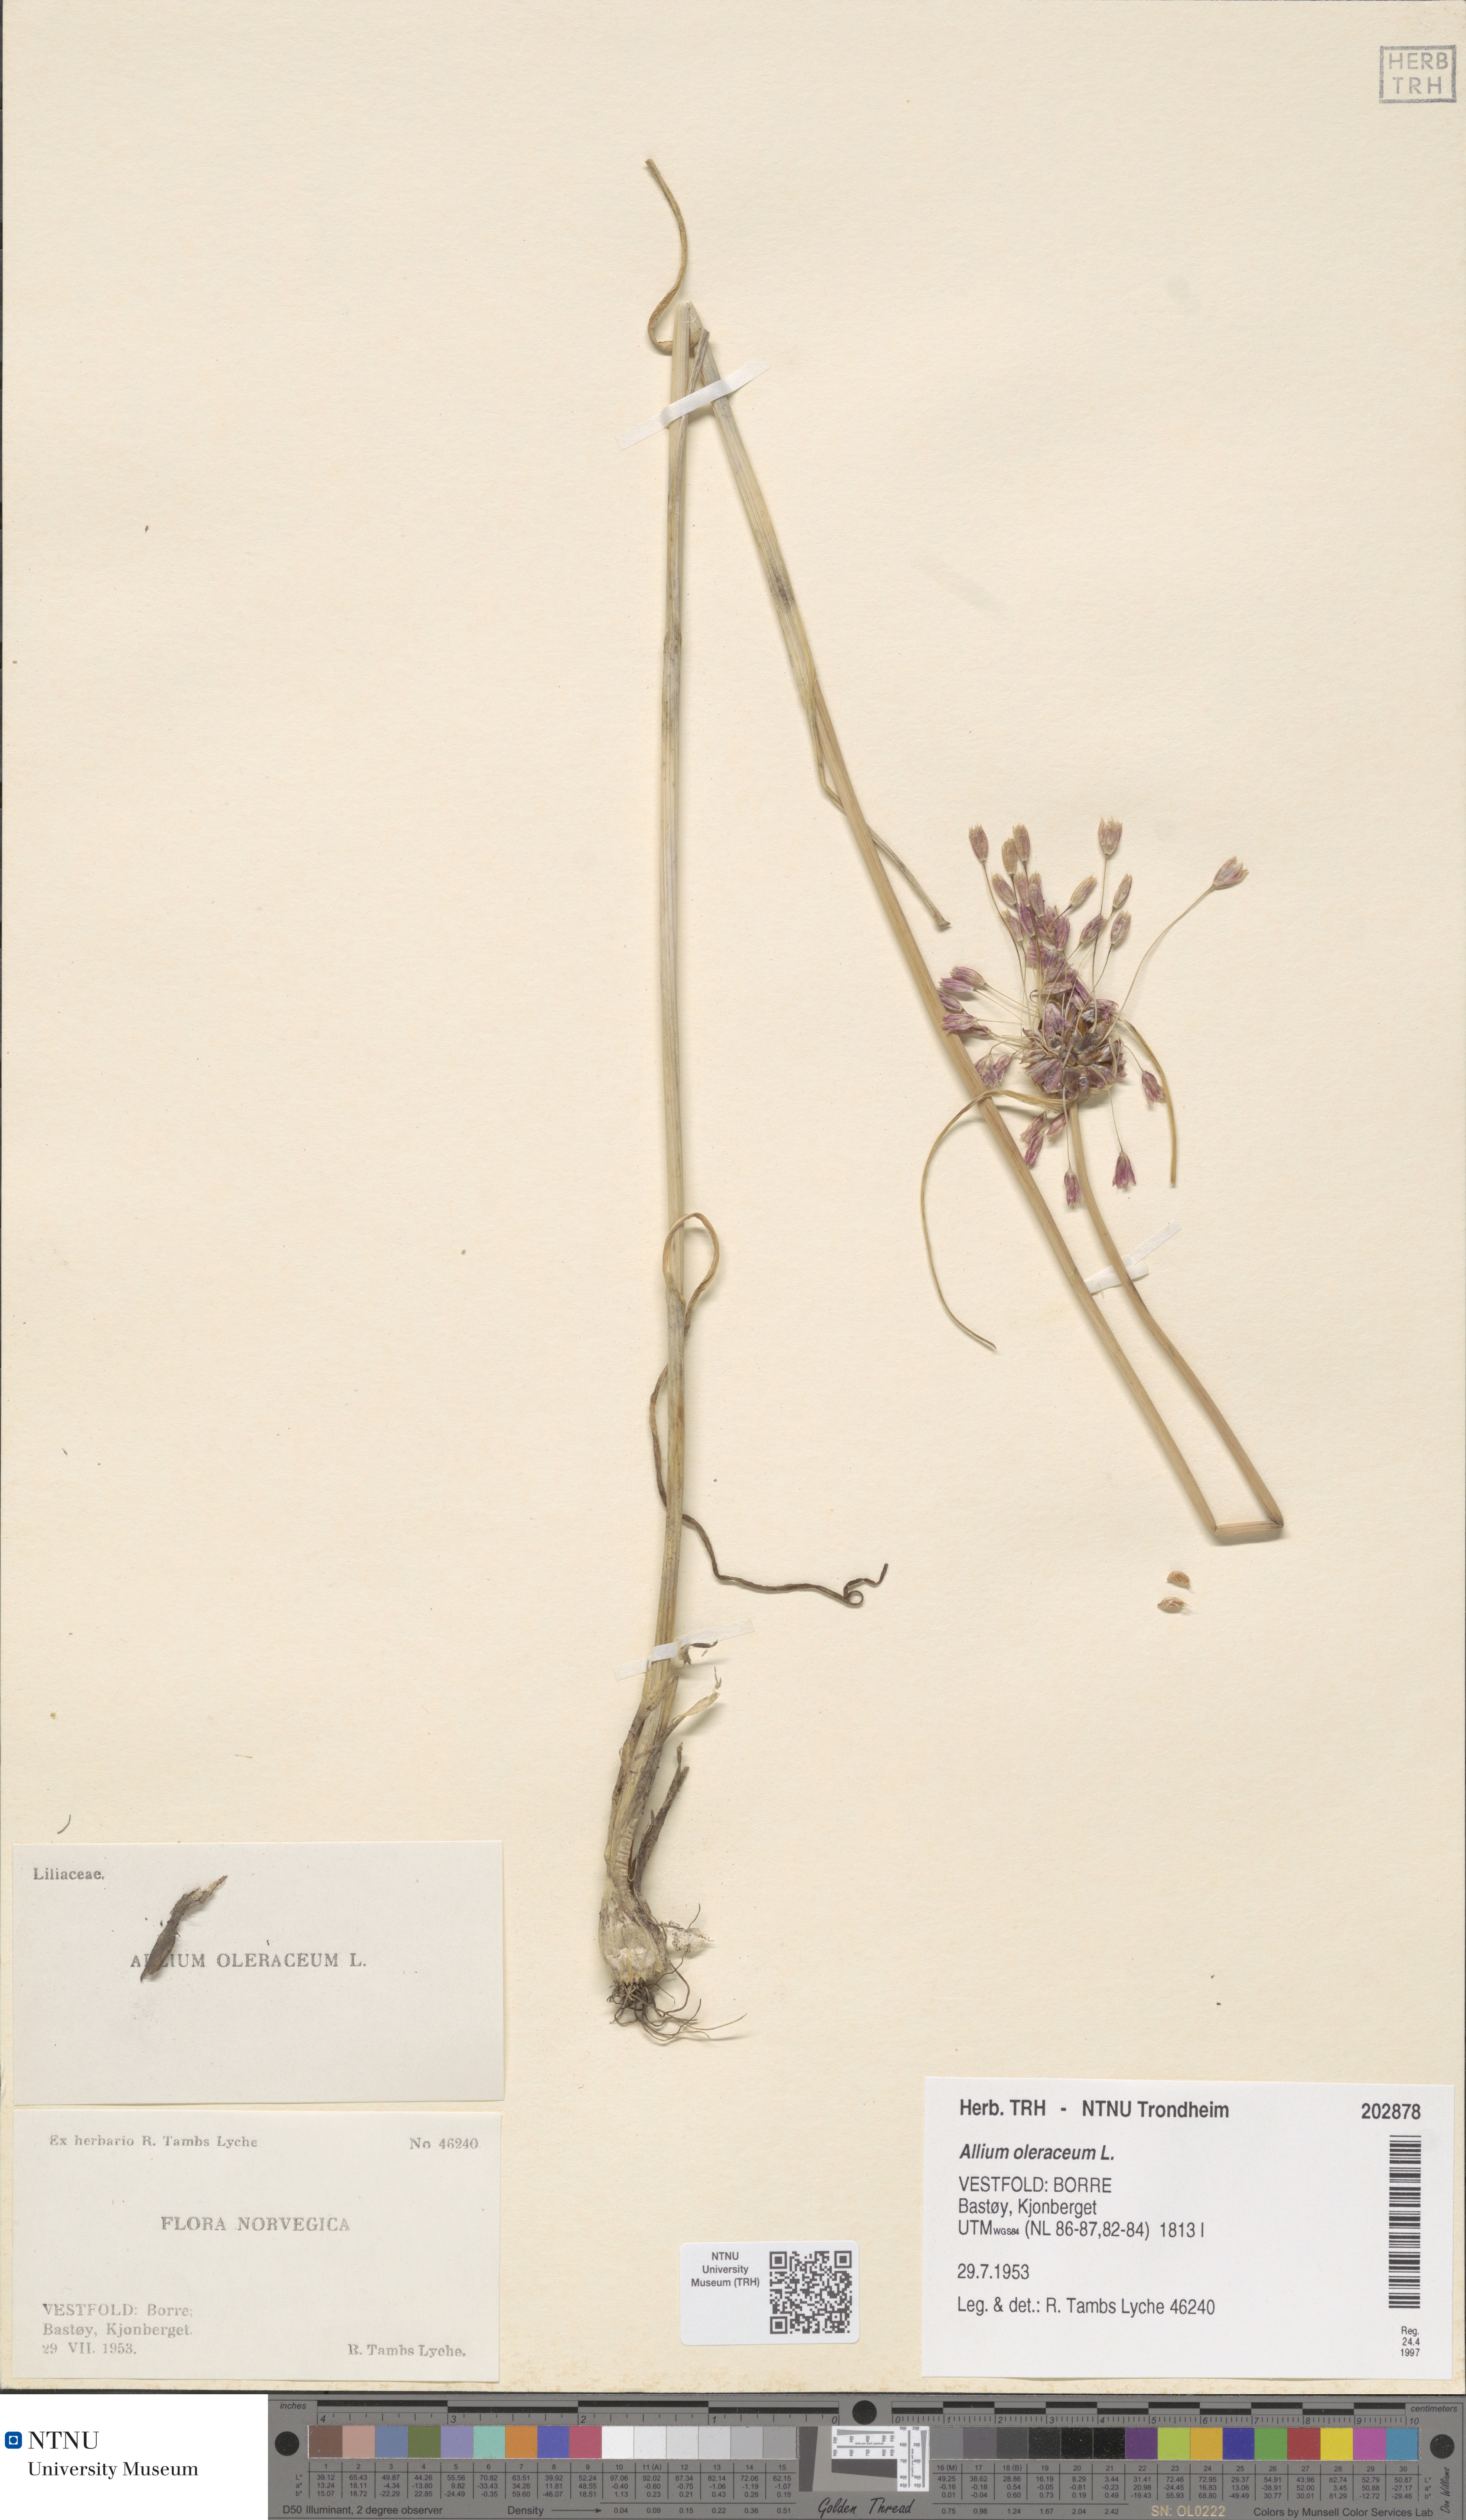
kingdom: Plantae
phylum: Tracheophyta
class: Liliopsida
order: Asparagales
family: Amaryllidaceae
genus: Allium
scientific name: Allium oleraceum
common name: Field garlic
